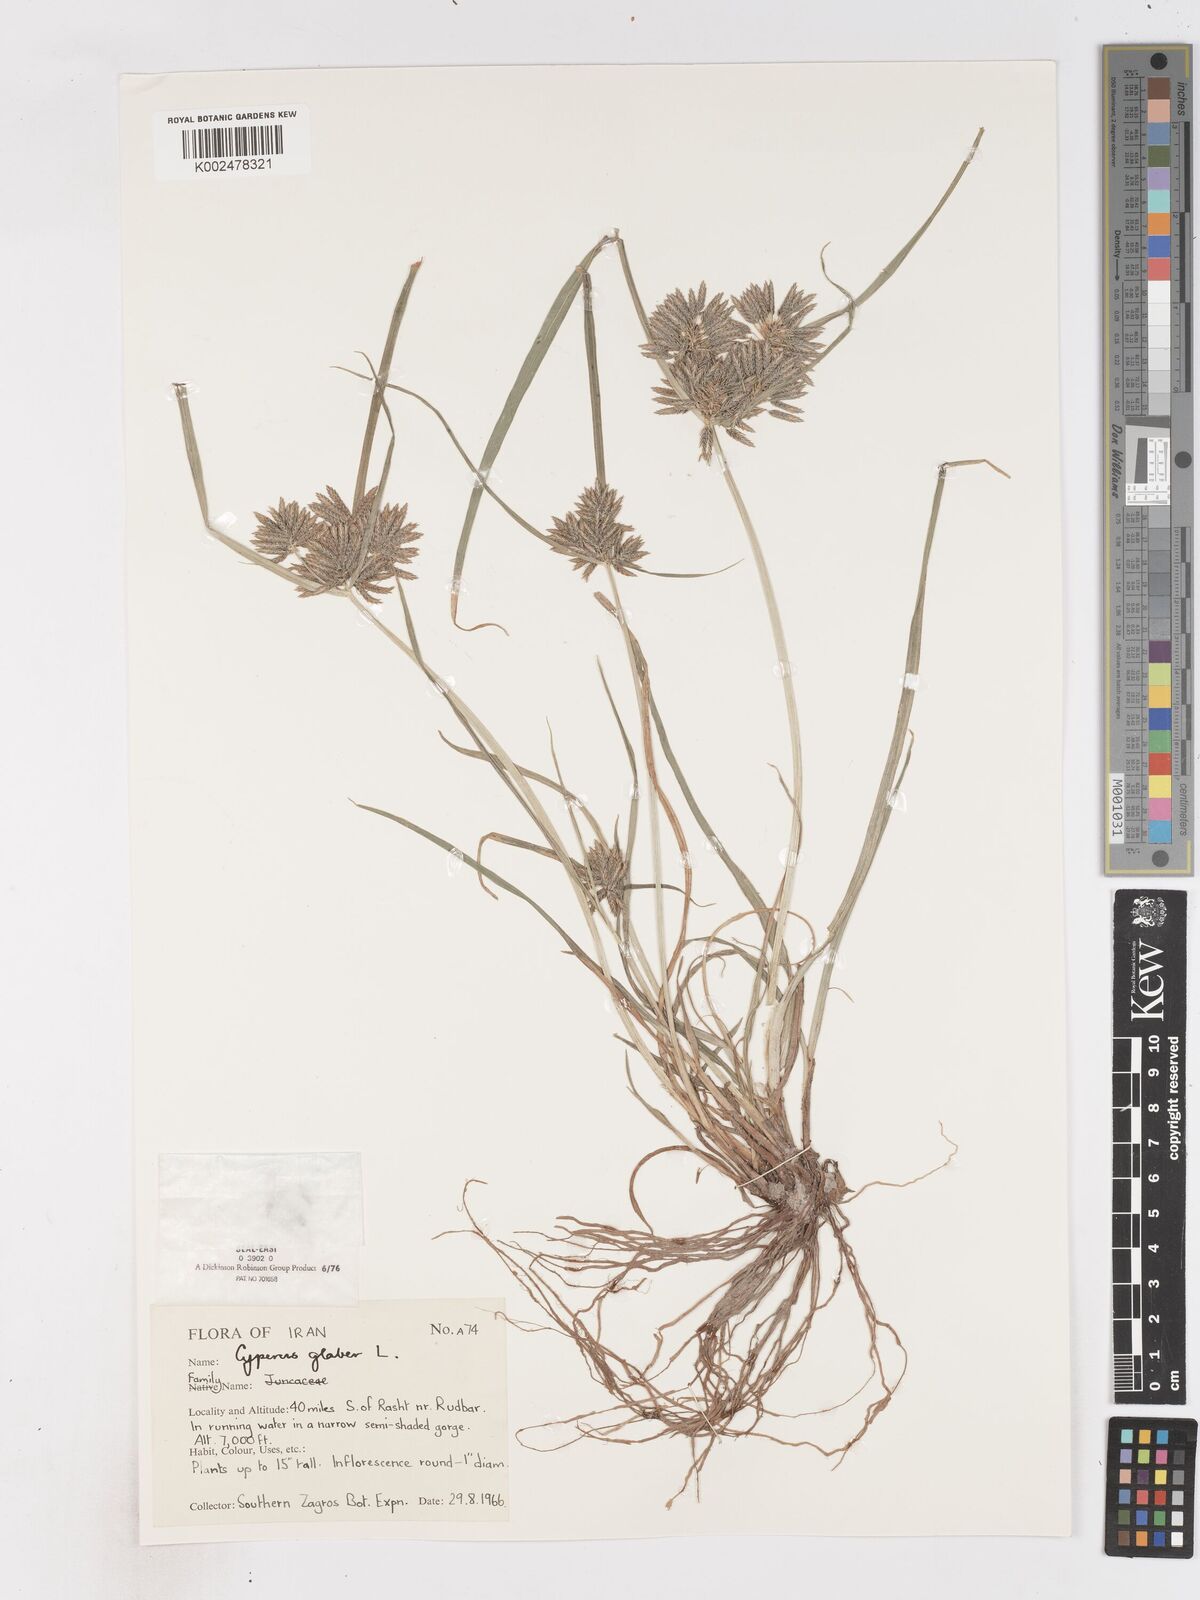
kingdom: Plantae
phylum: Tracheophyta
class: Liliopsida
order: Poales
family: Cyperaceae
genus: Cyperus
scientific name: Cyperus glaber
